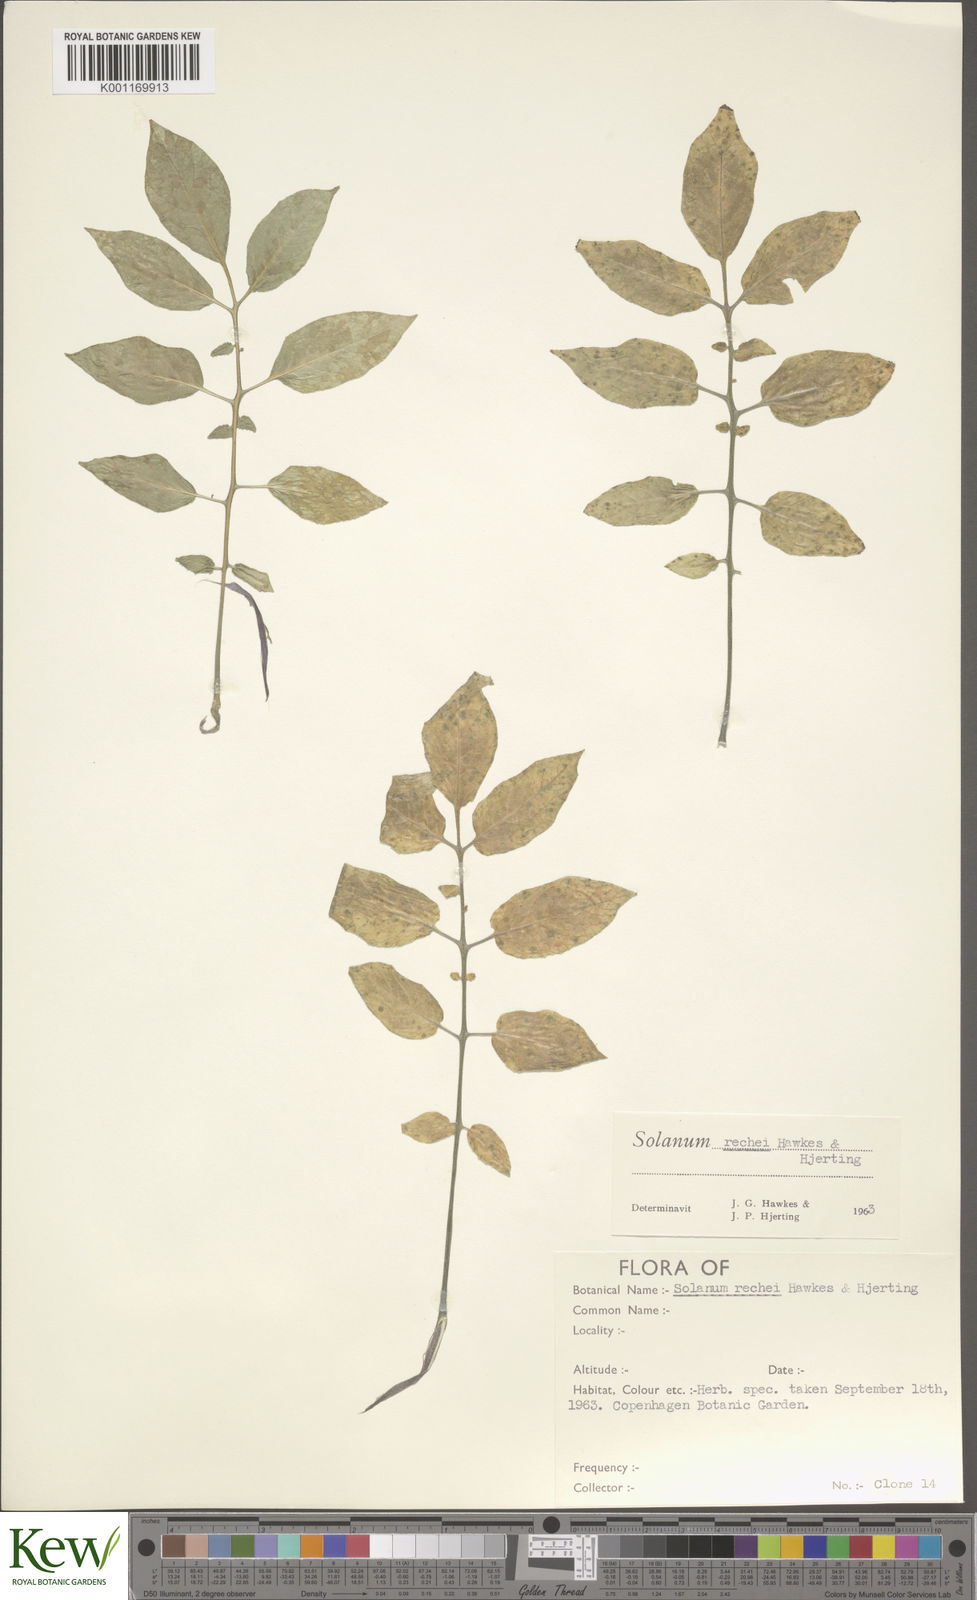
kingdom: Plantae
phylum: Tracheophyta
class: Magnoliopsida
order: Solanales
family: Solanaceae
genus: Solanum
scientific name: Solanum rechei
